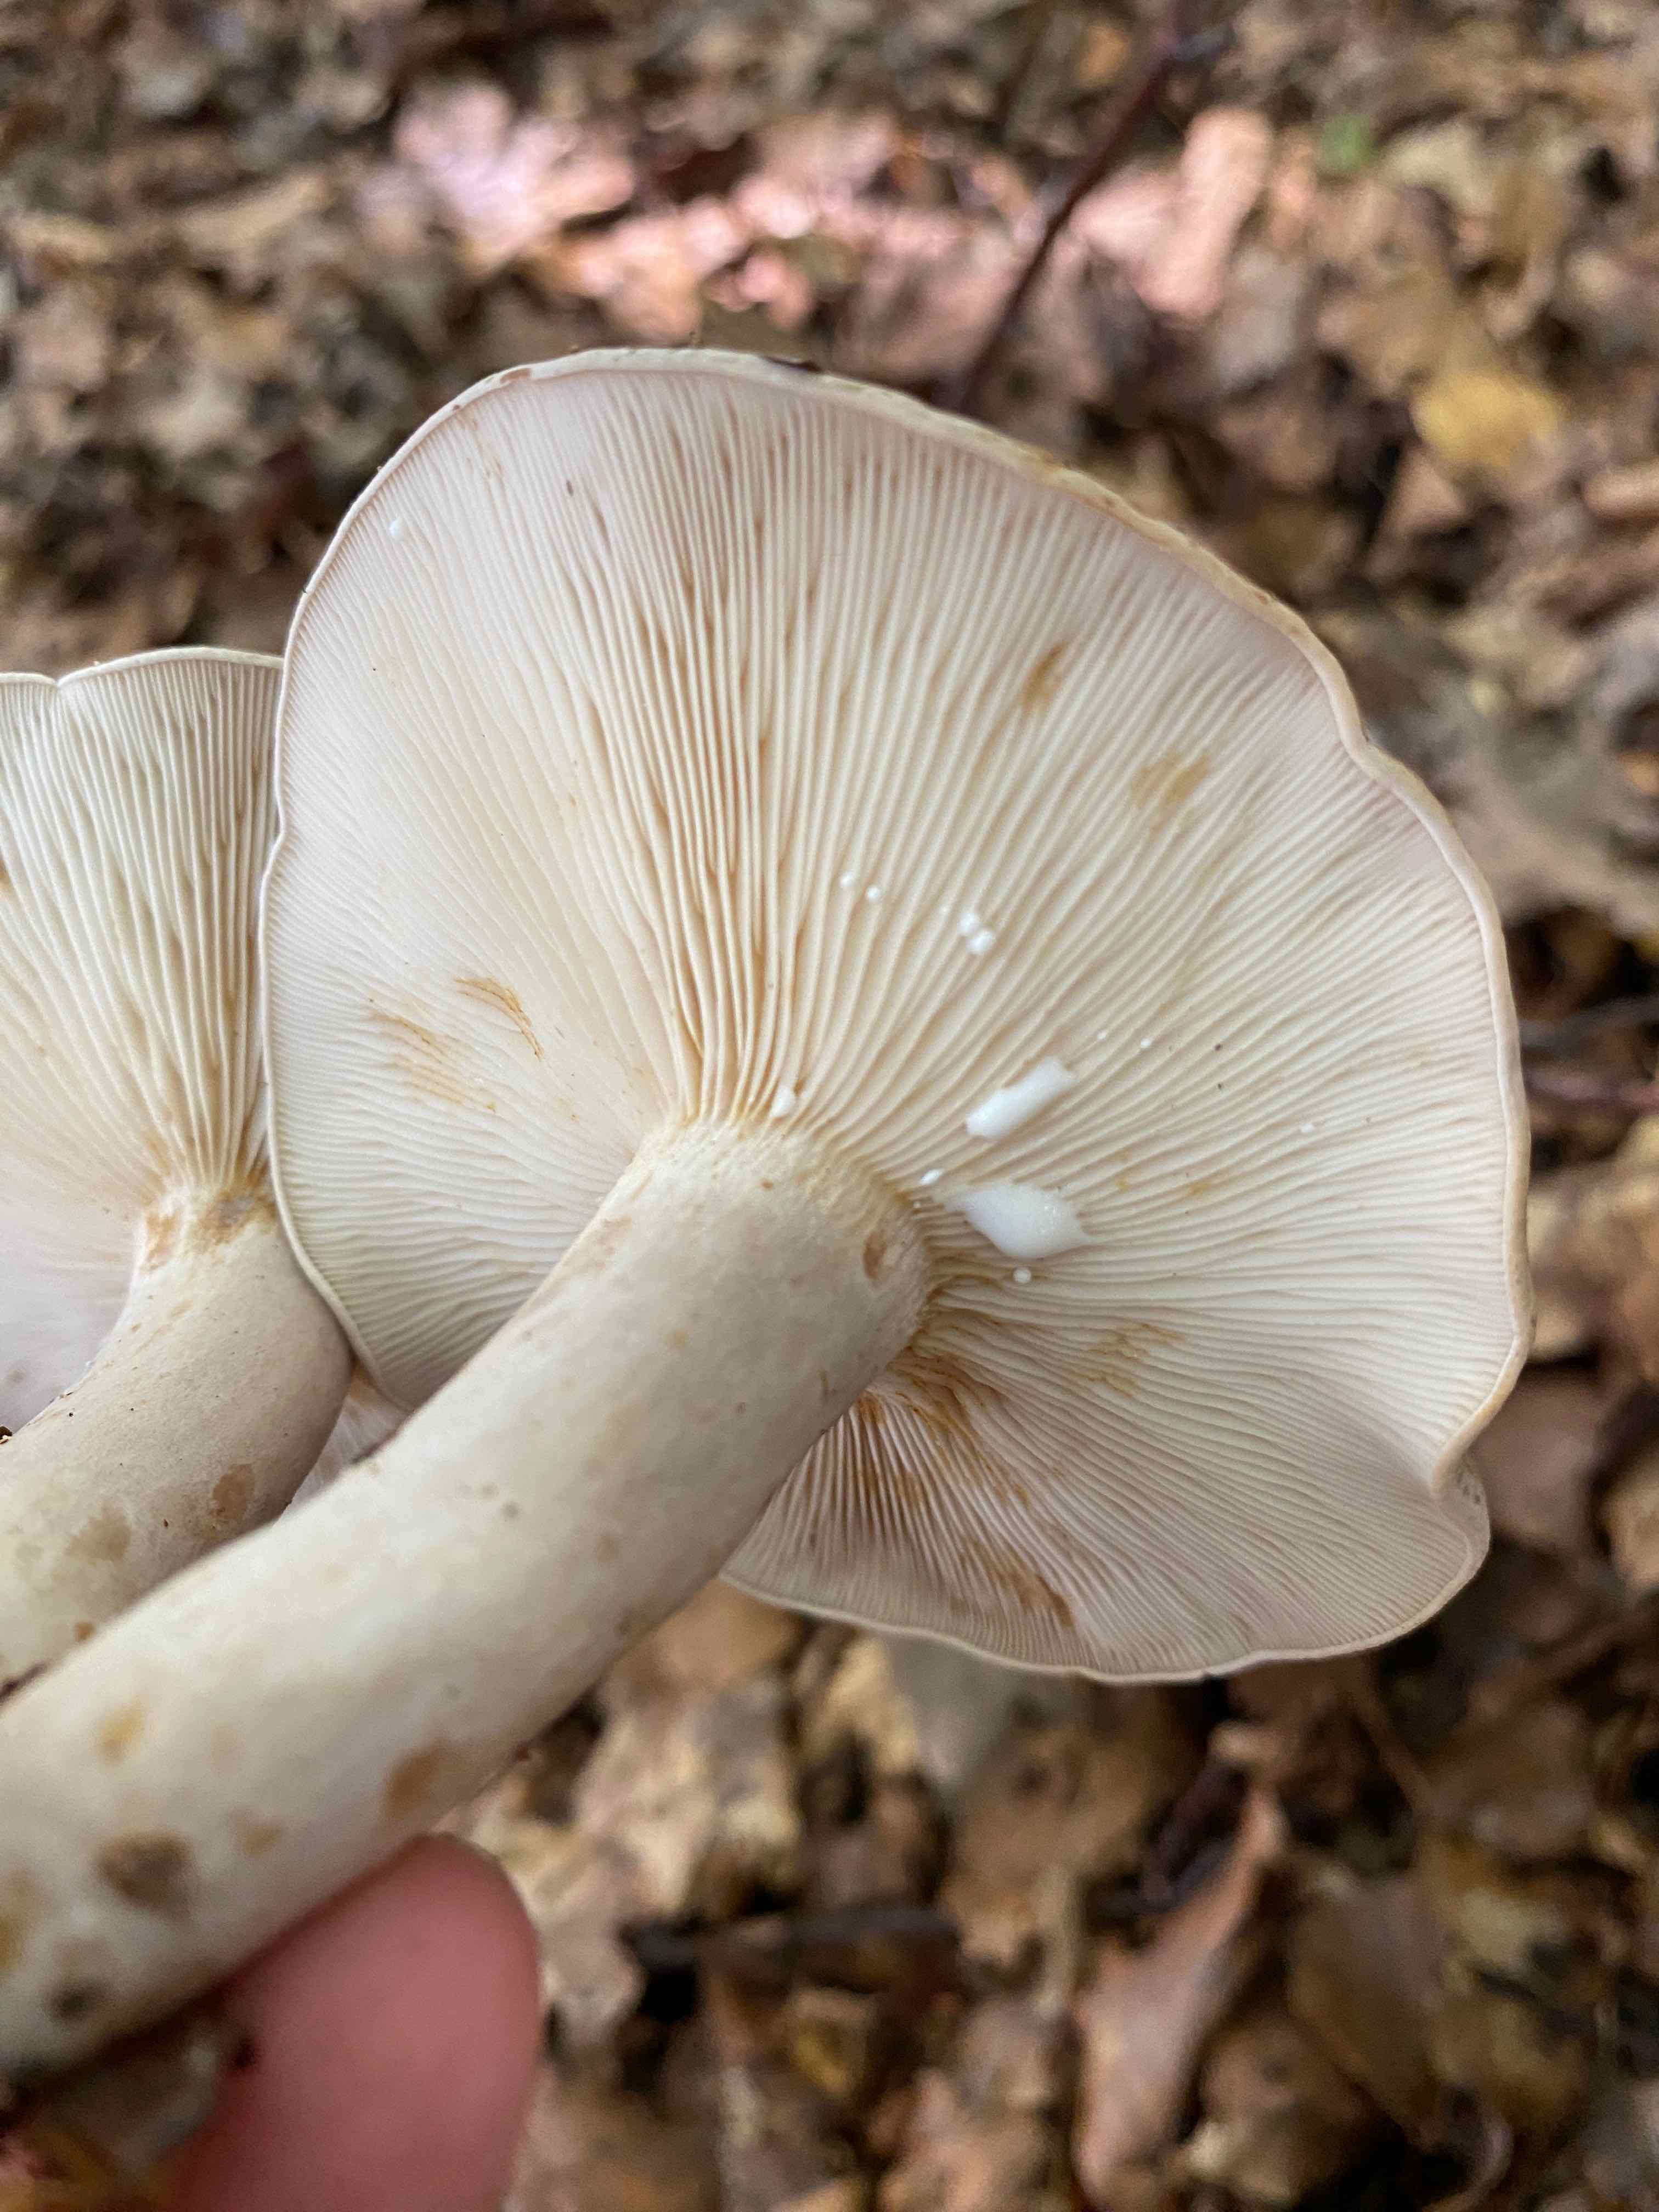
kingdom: Fungi
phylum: Basidiomycota
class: Agaricomycetes
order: Russulales
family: Russulaceae
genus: Lactarius
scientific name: Lactarius blennius
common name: dråbeplettet mælkehat
